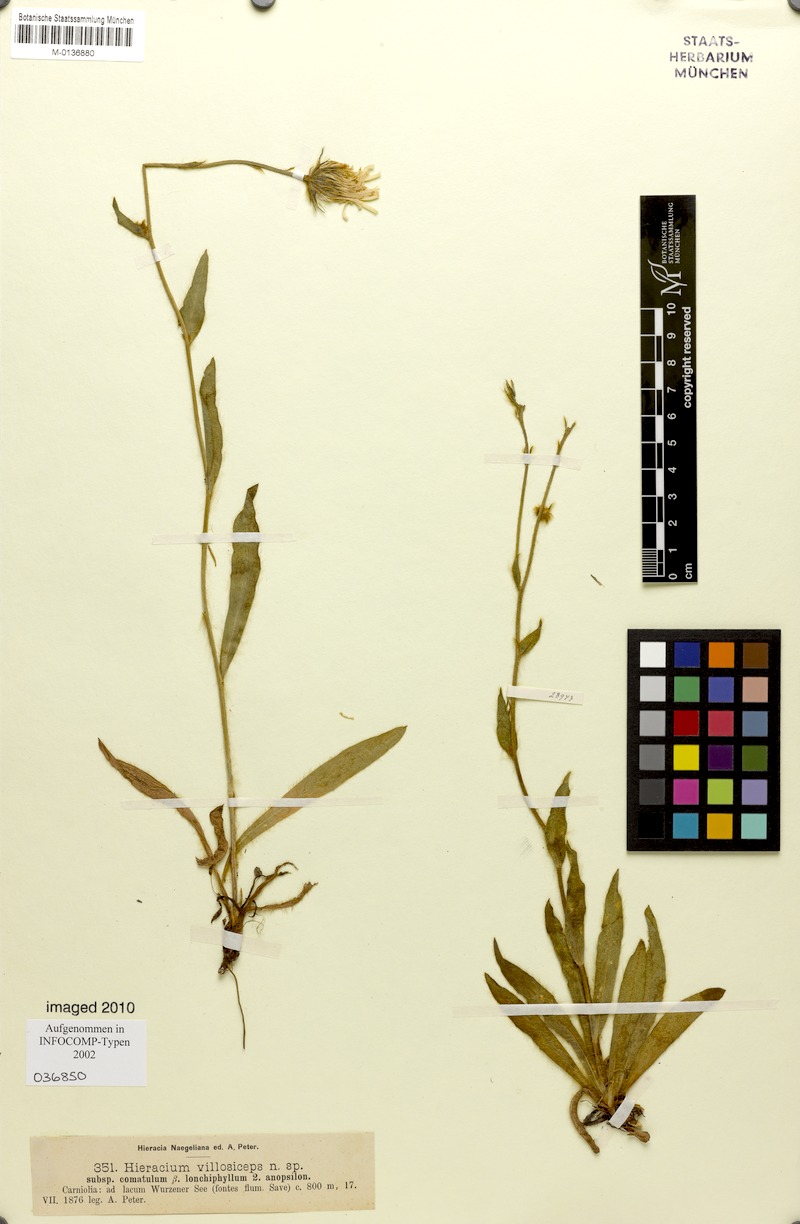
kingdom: Plantae
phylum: Tracheophyta
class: Magnoliopsida
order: Asterales
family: Asteraceae
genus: Hieracium
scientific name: Hieracium pilosum
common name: Fimbriate-pitted hawkweed
